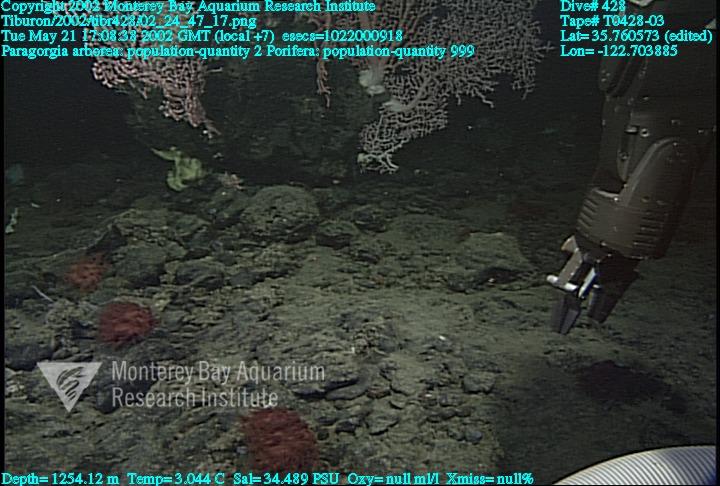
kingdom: Animalia
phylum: Porifera
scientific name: Porifera
